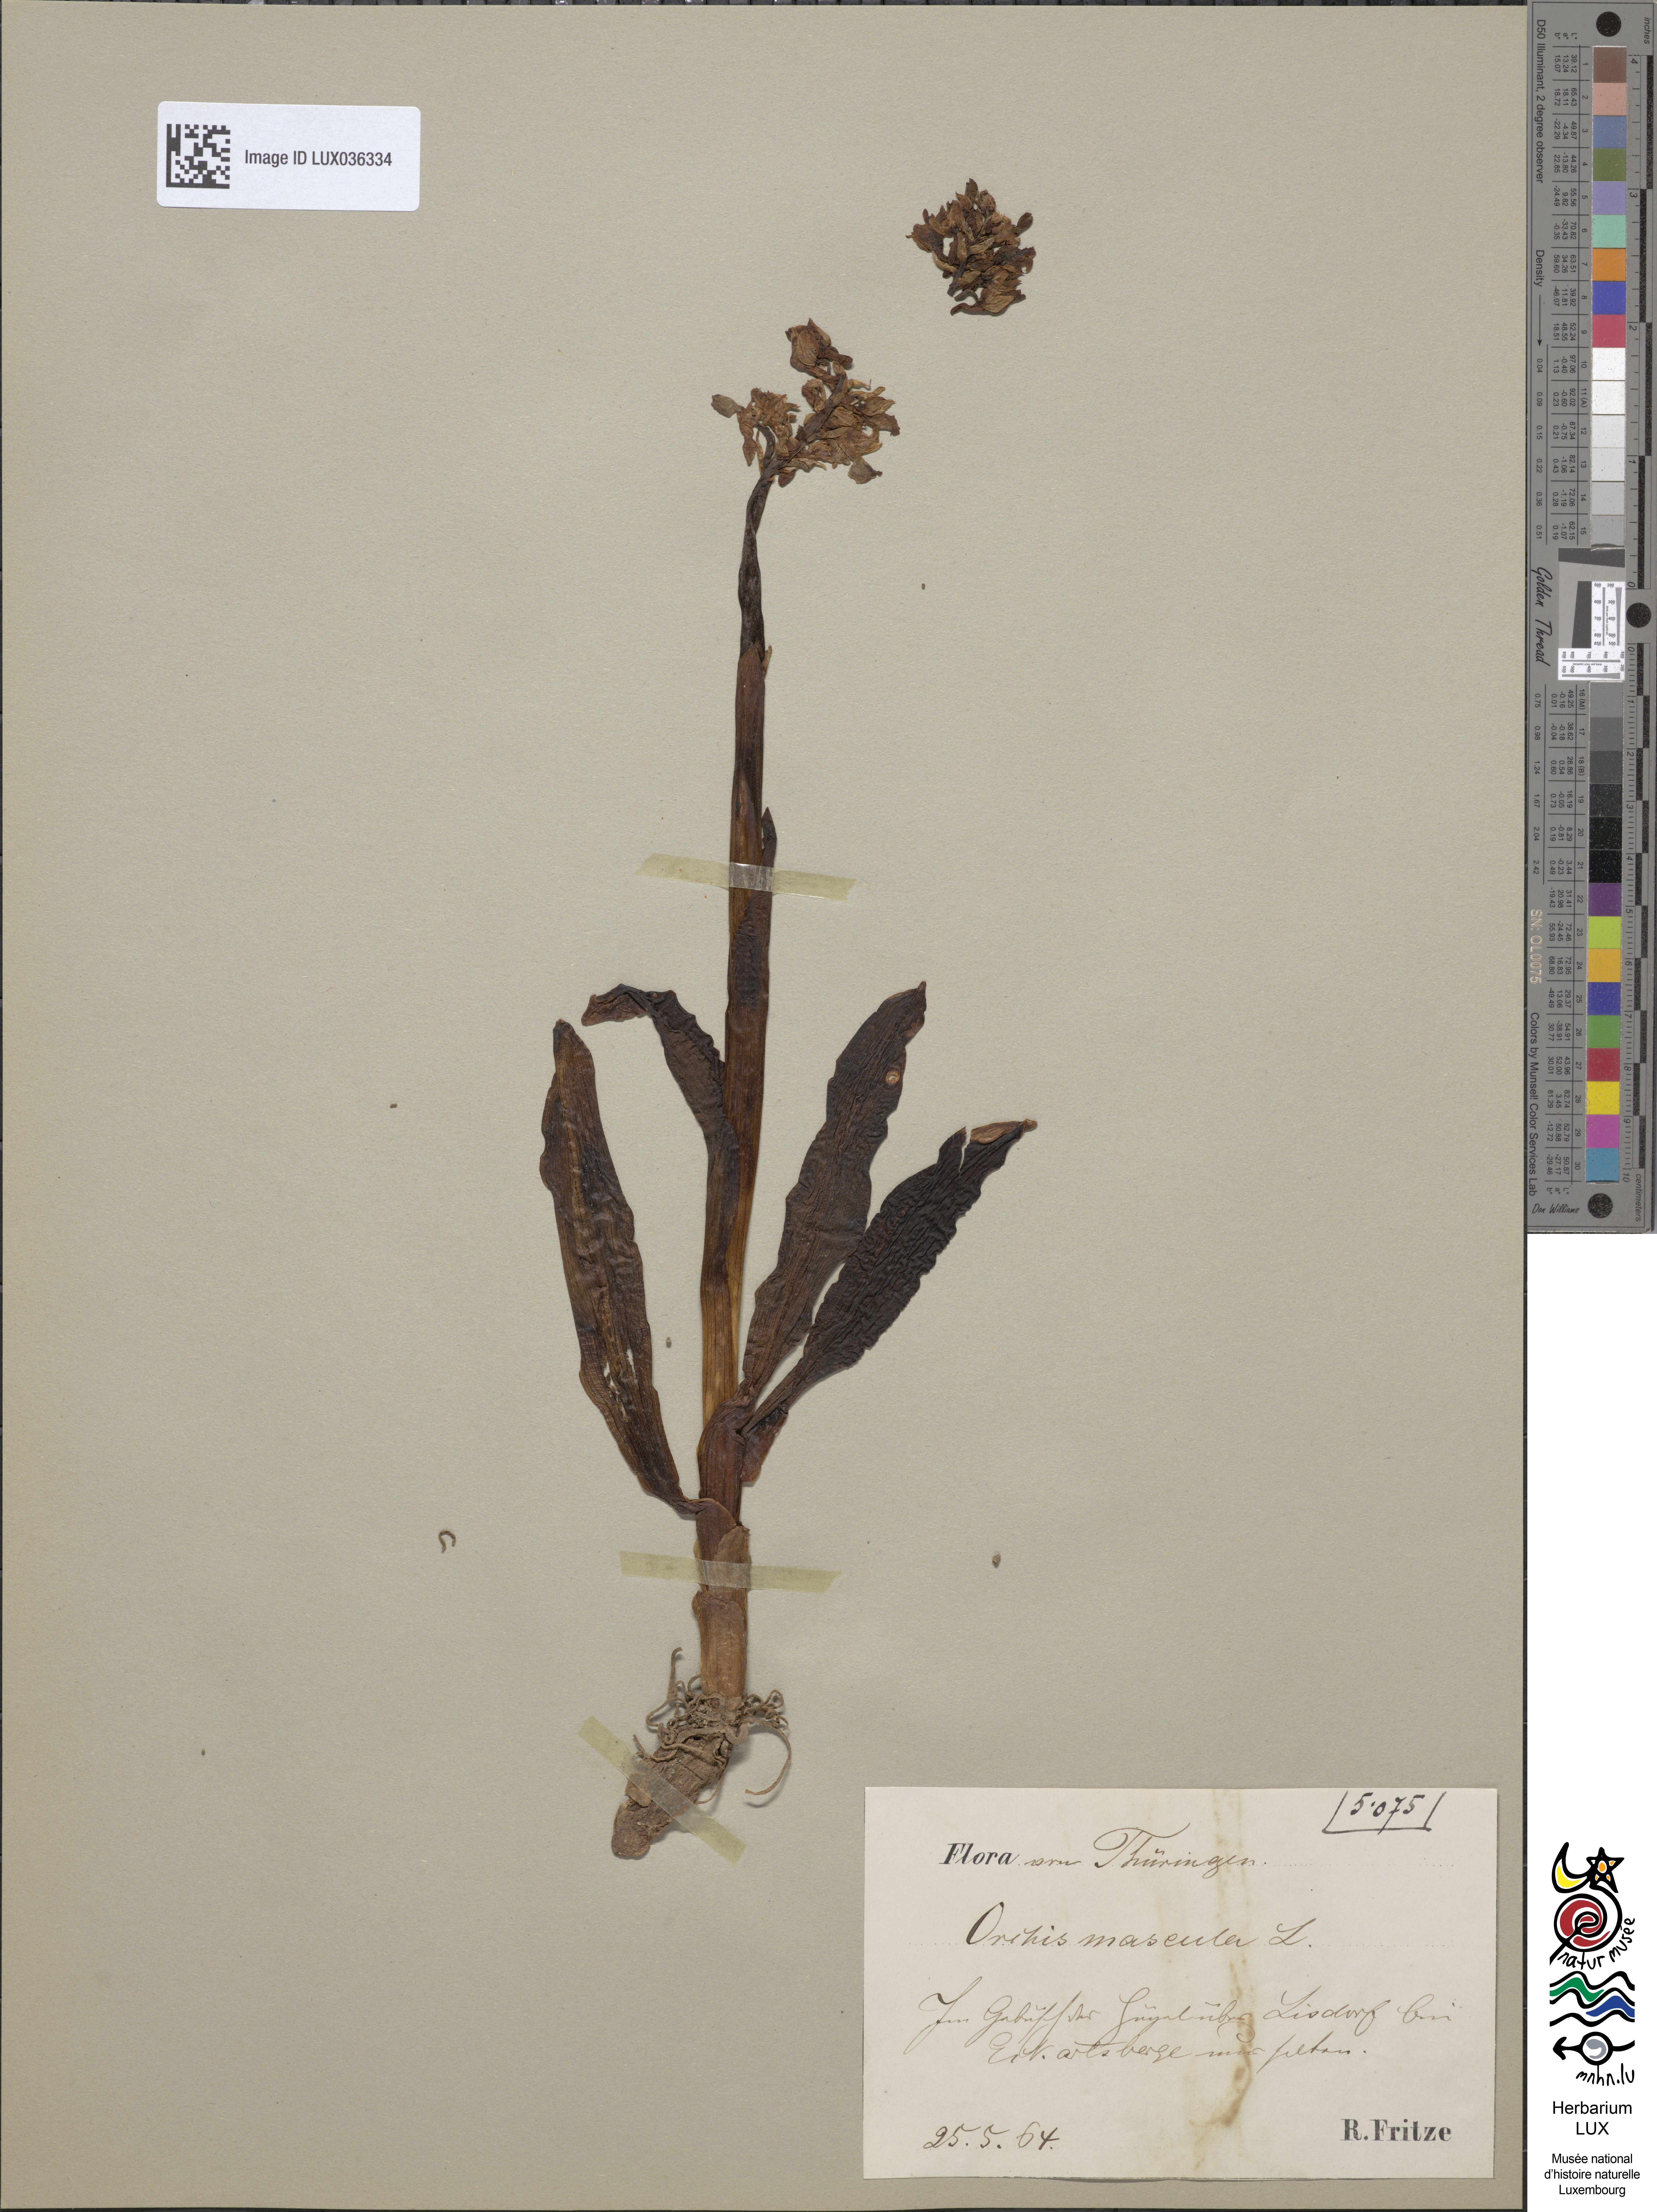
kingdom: Plantae
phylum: Tracheophyta
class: Liliopsida
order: Asparagales
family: Orchidaceae
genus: Orchis
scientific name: Orchis mascula
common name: Early-purple orchid
